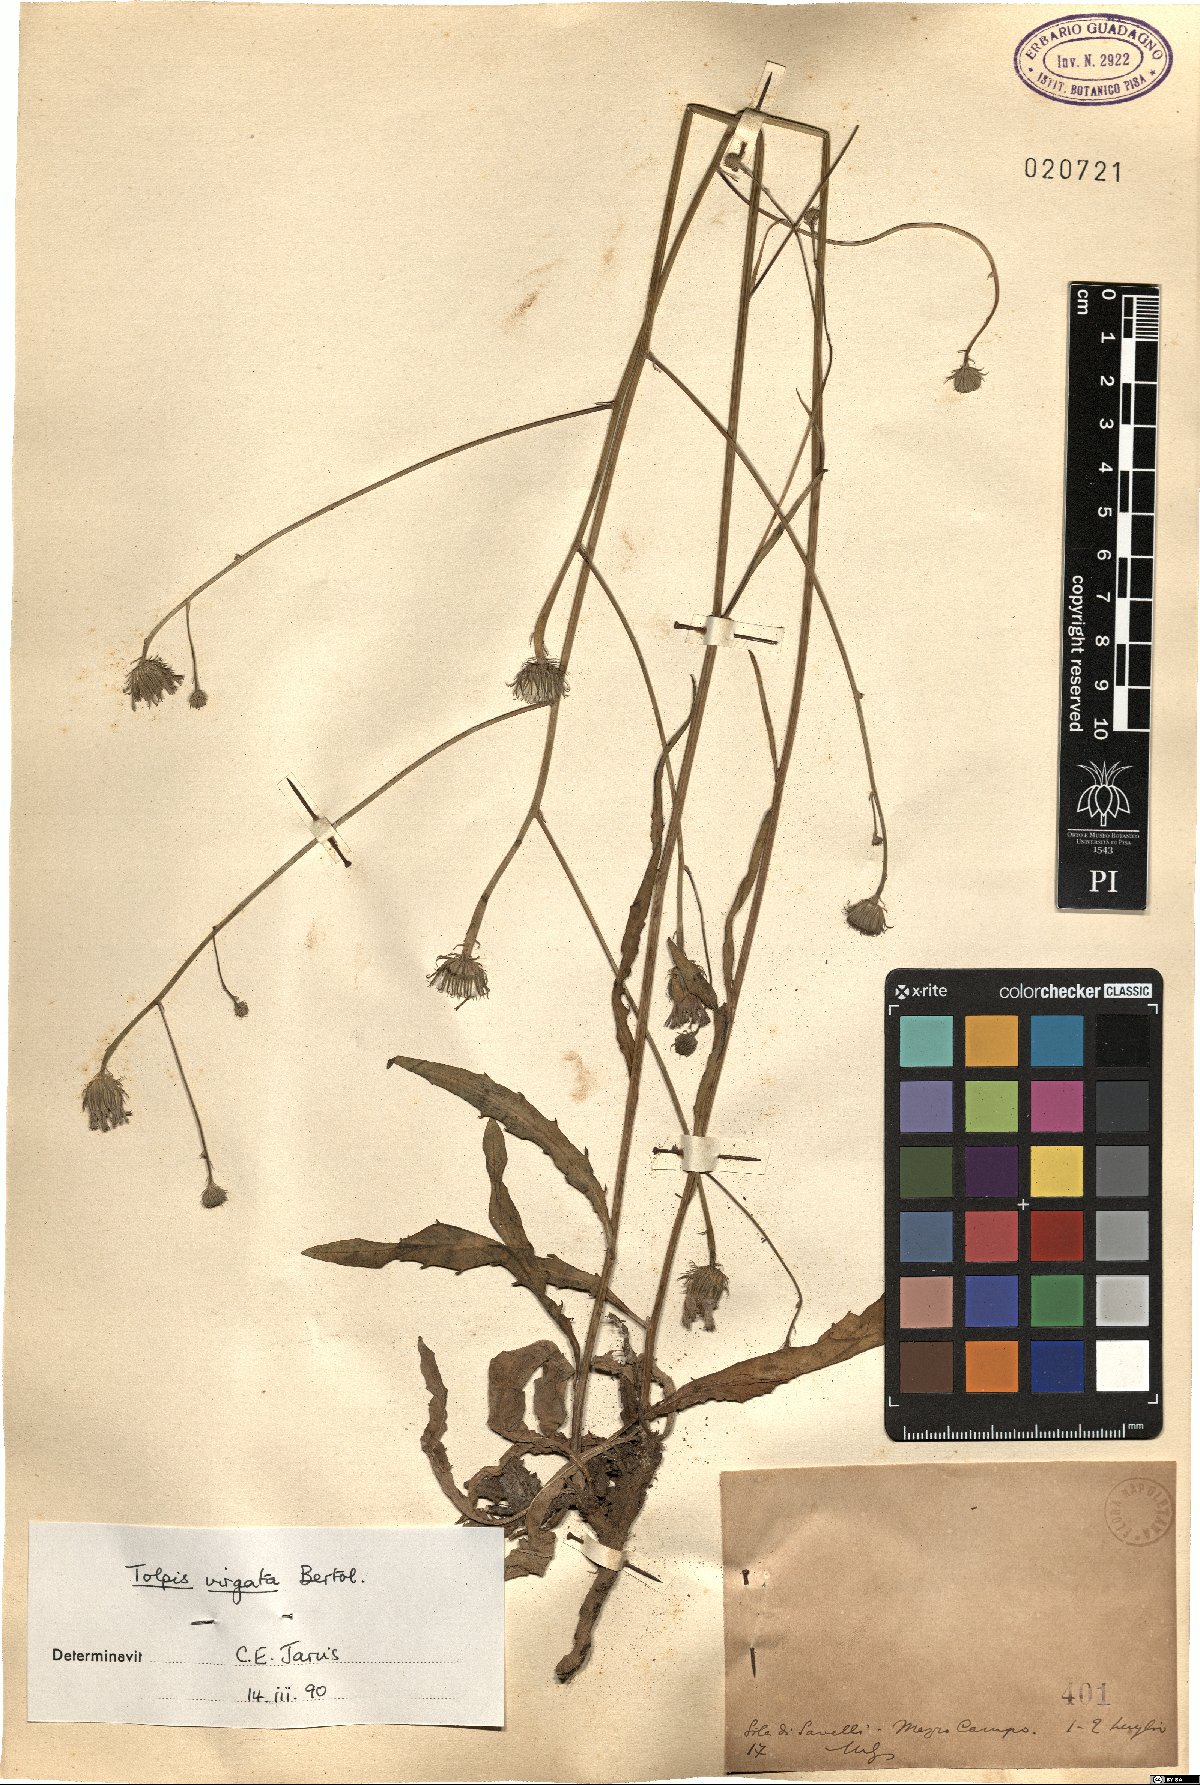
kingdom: Plantae
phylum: Tracheophyta
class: Magnoliopsida
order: Asterales
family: Asteraceae
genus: Tolpis
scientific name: Tolpis virgata
